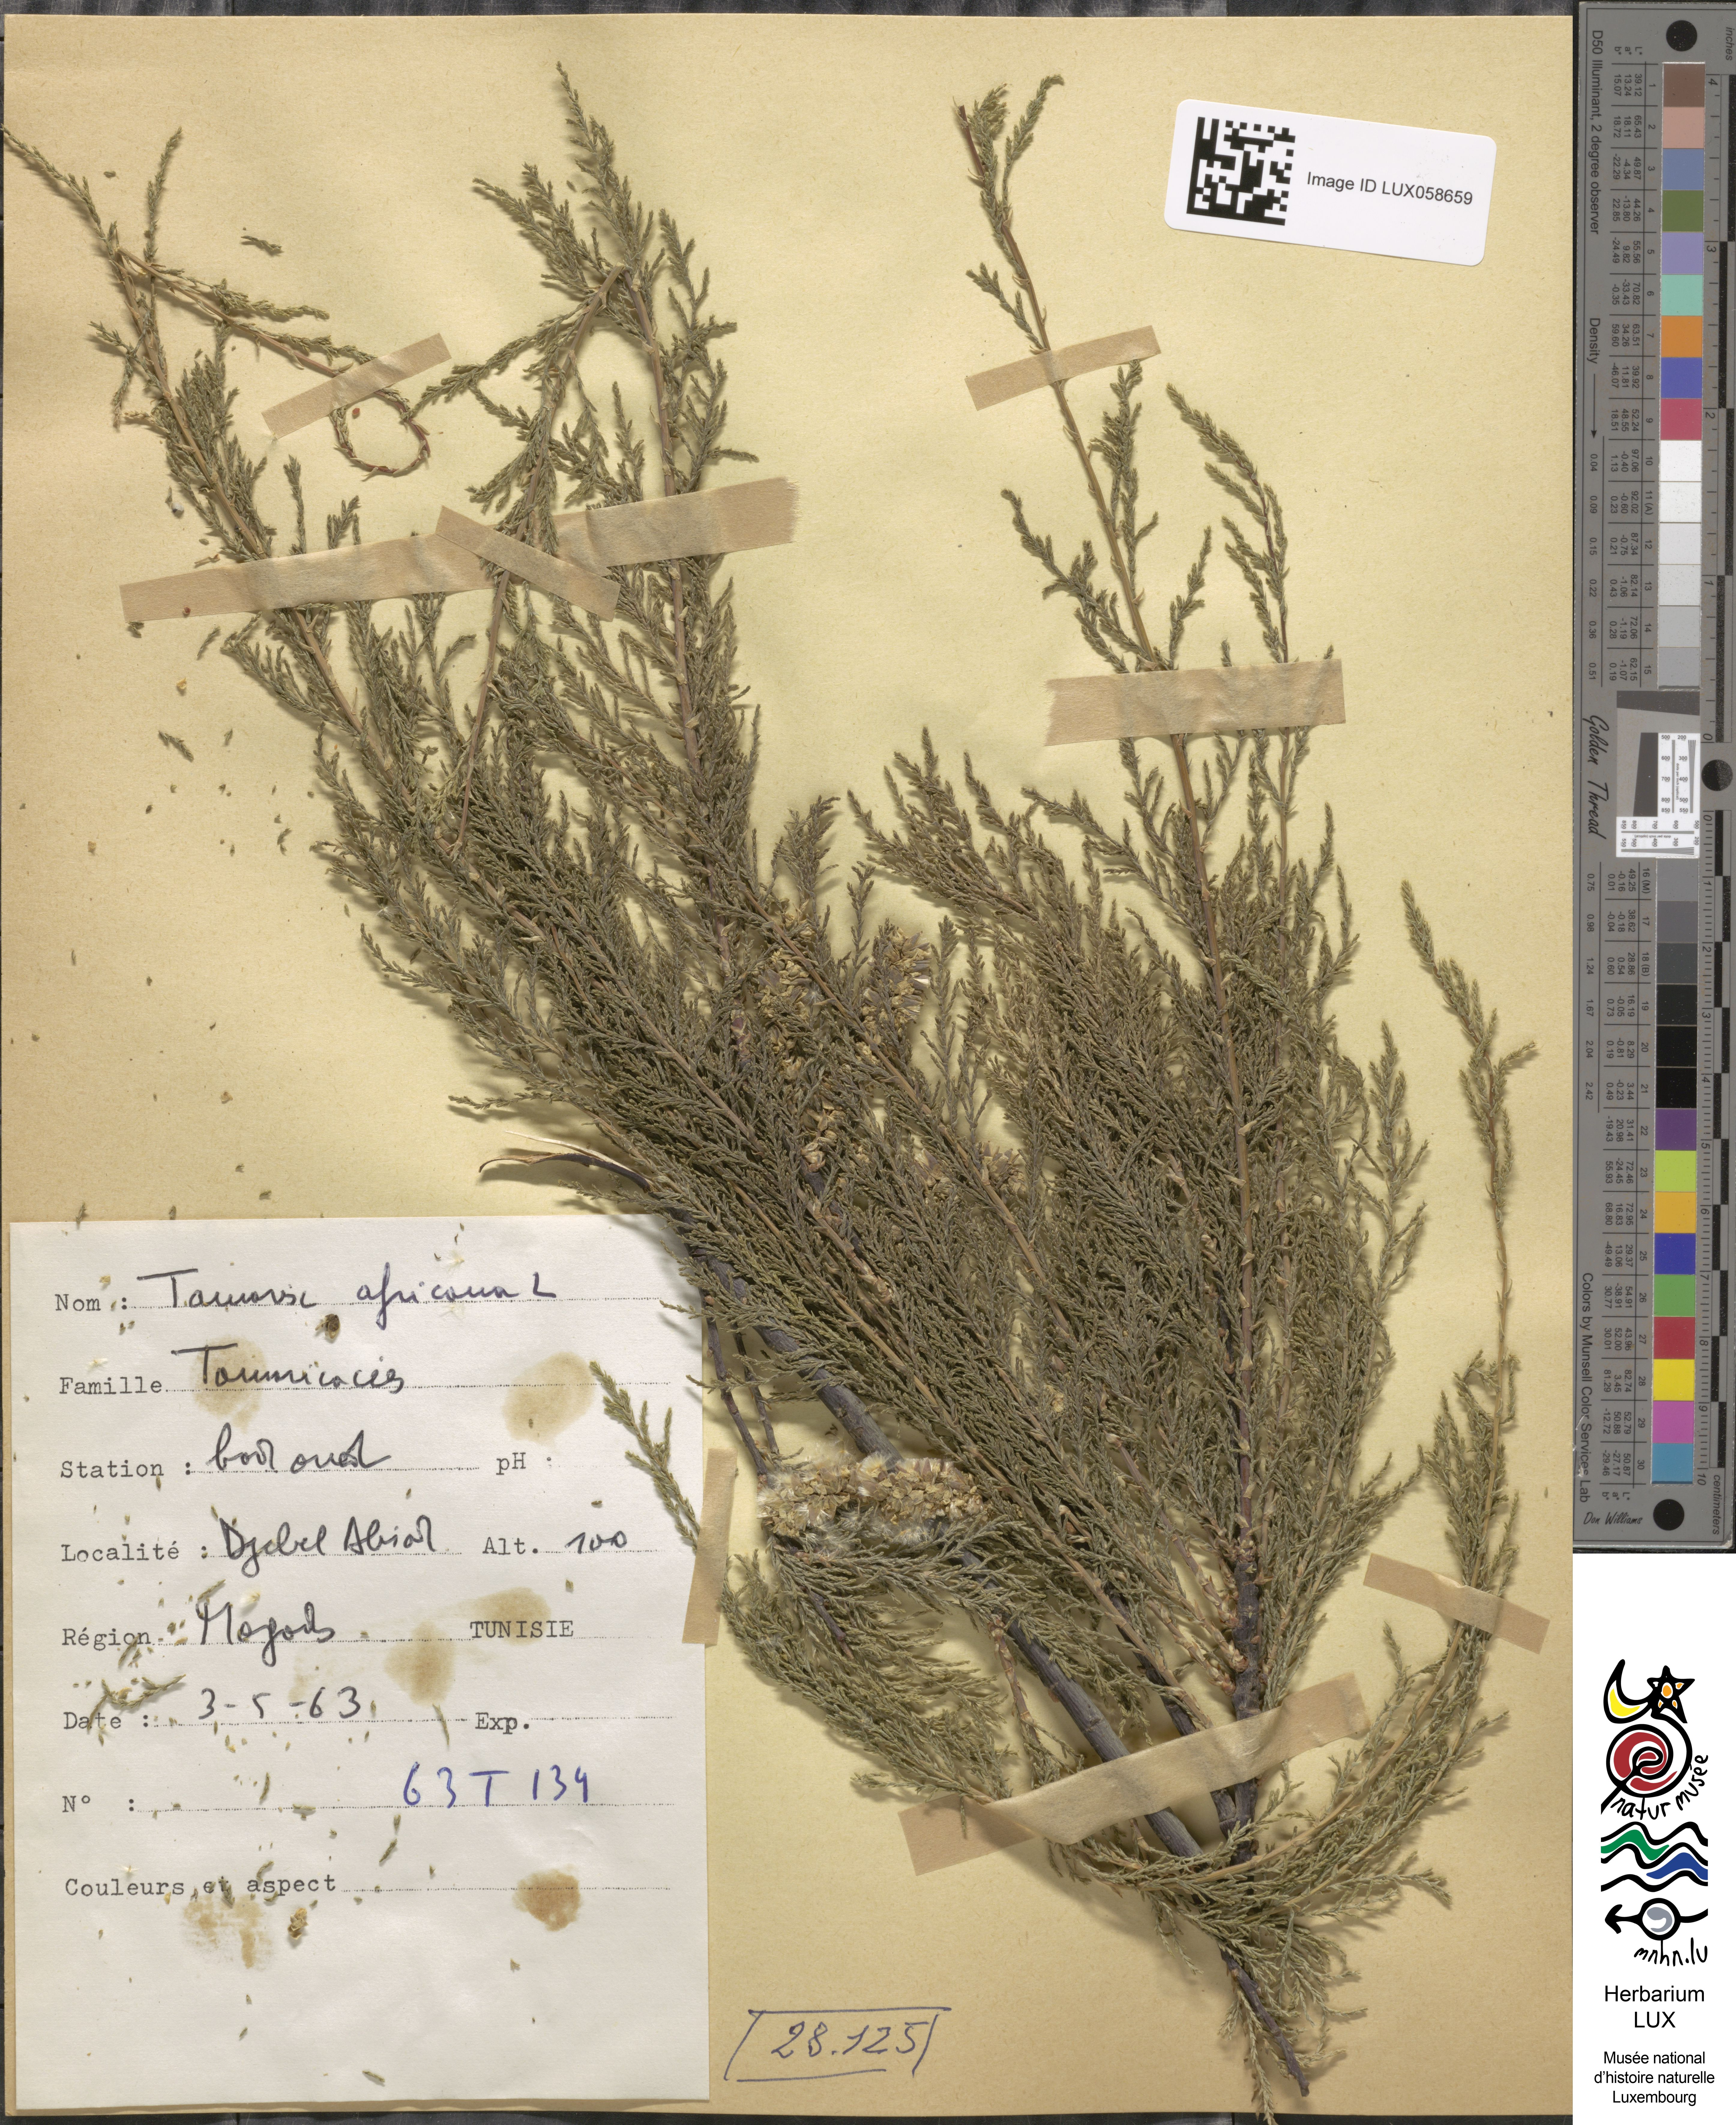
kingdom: Plantae
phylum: Tracheophyta
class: Magnoliopsida
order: Caryophyllales
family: Tamaricaceae
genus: Tamarix
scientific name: Tamarix africana
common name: African tamarisk
